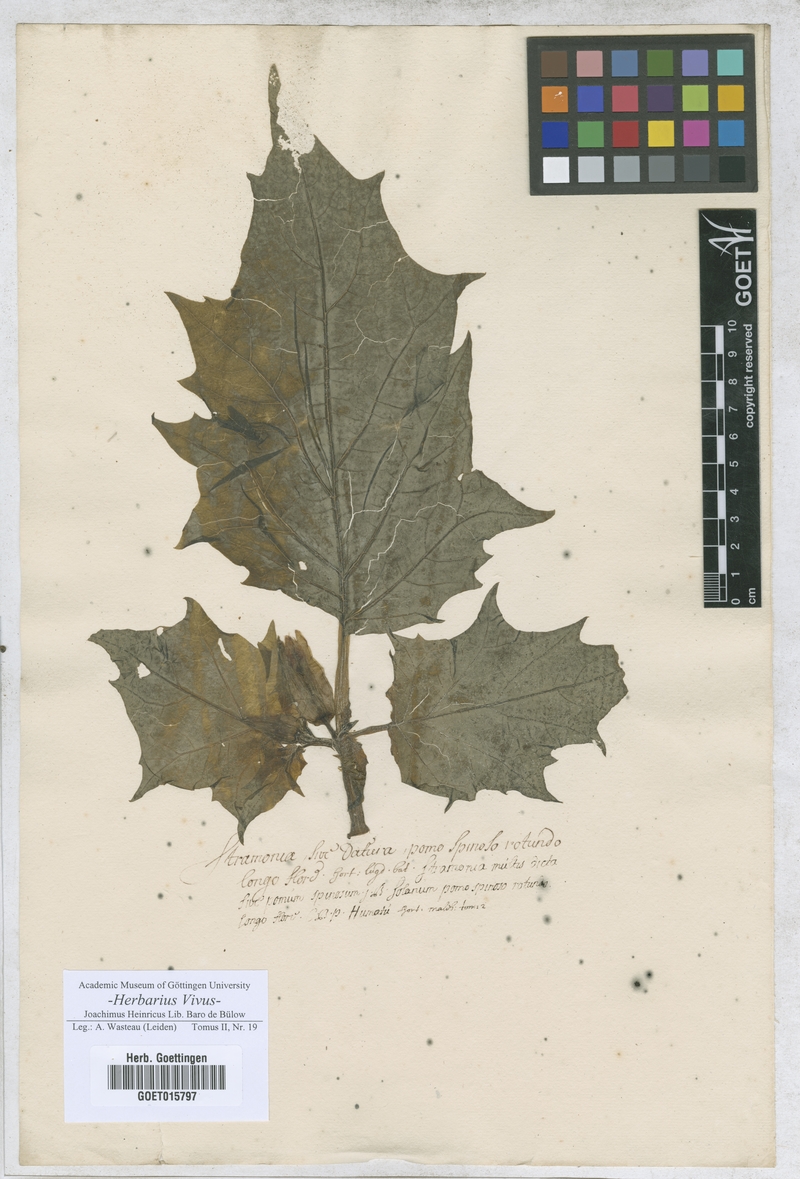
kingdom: Plantae
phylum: Tracheophyta
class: Magnoliopsida
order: Solanales
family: Solanaceae
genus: Datura
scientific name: Datura metel
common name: Jimsonweed
